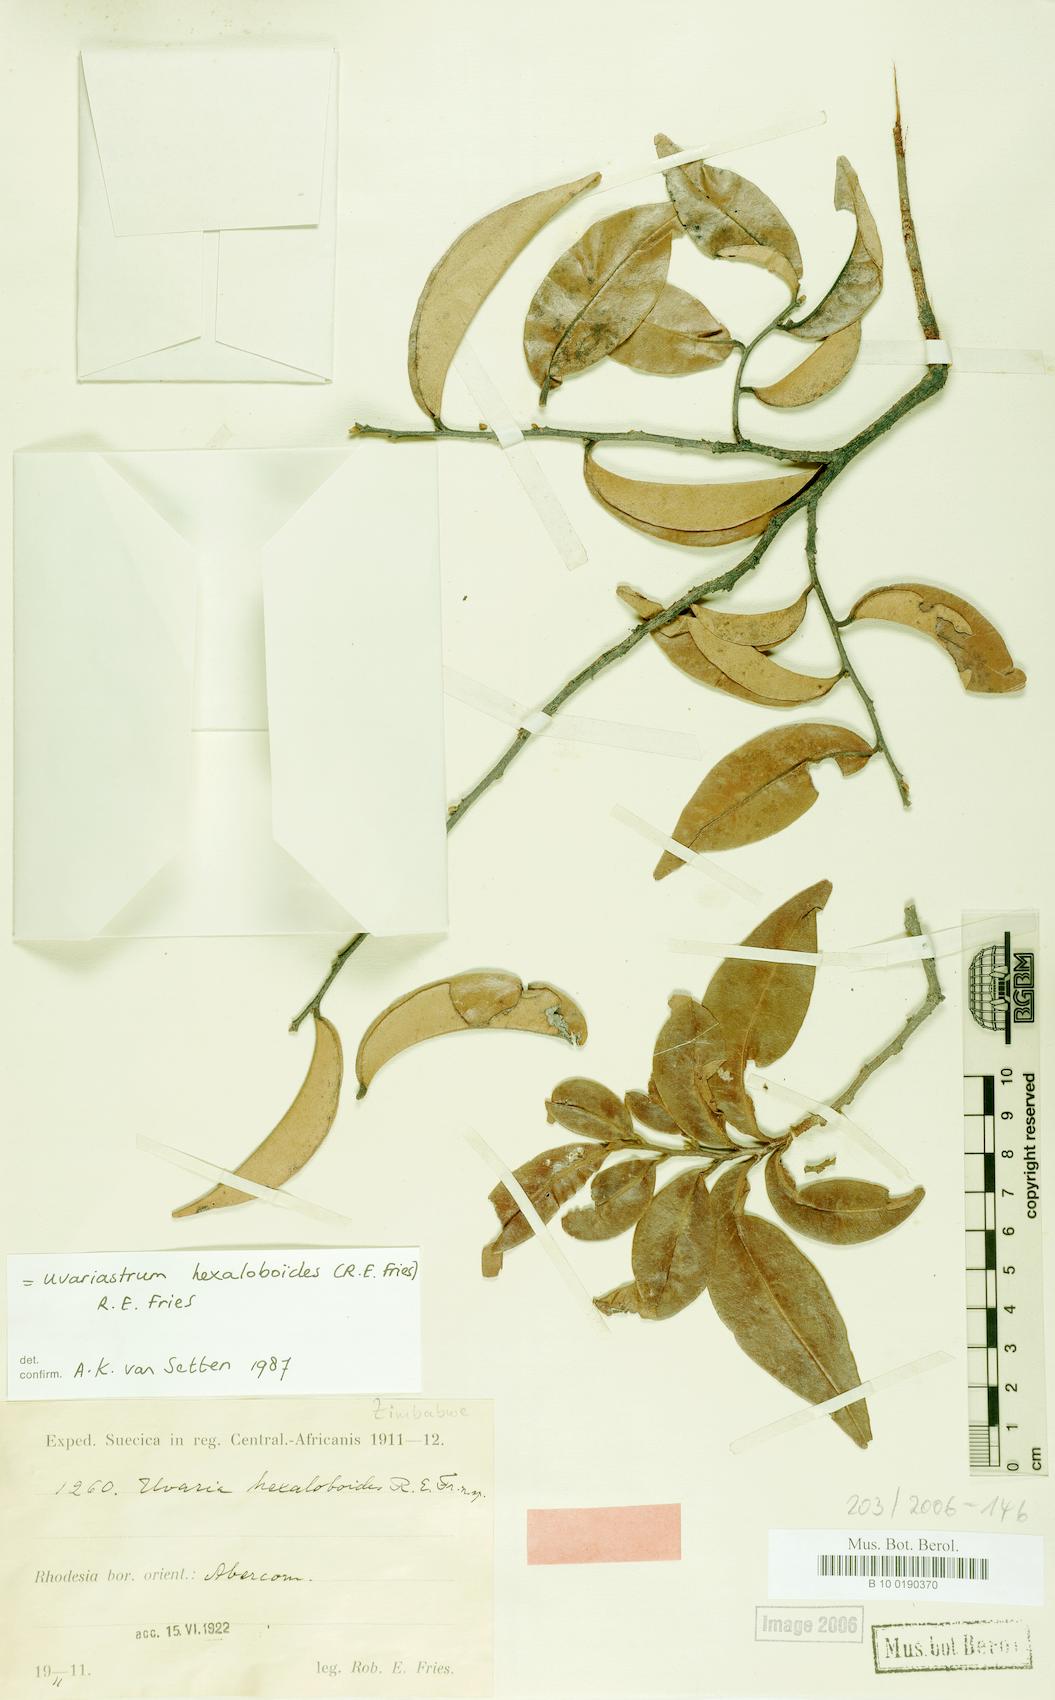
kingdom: Plantae
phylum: Tracheophyta
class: Magnoliopsida
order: Magnoliales
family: Annonaceae
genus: Uvariastrum
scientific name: Uvariastrum hexaloboides
